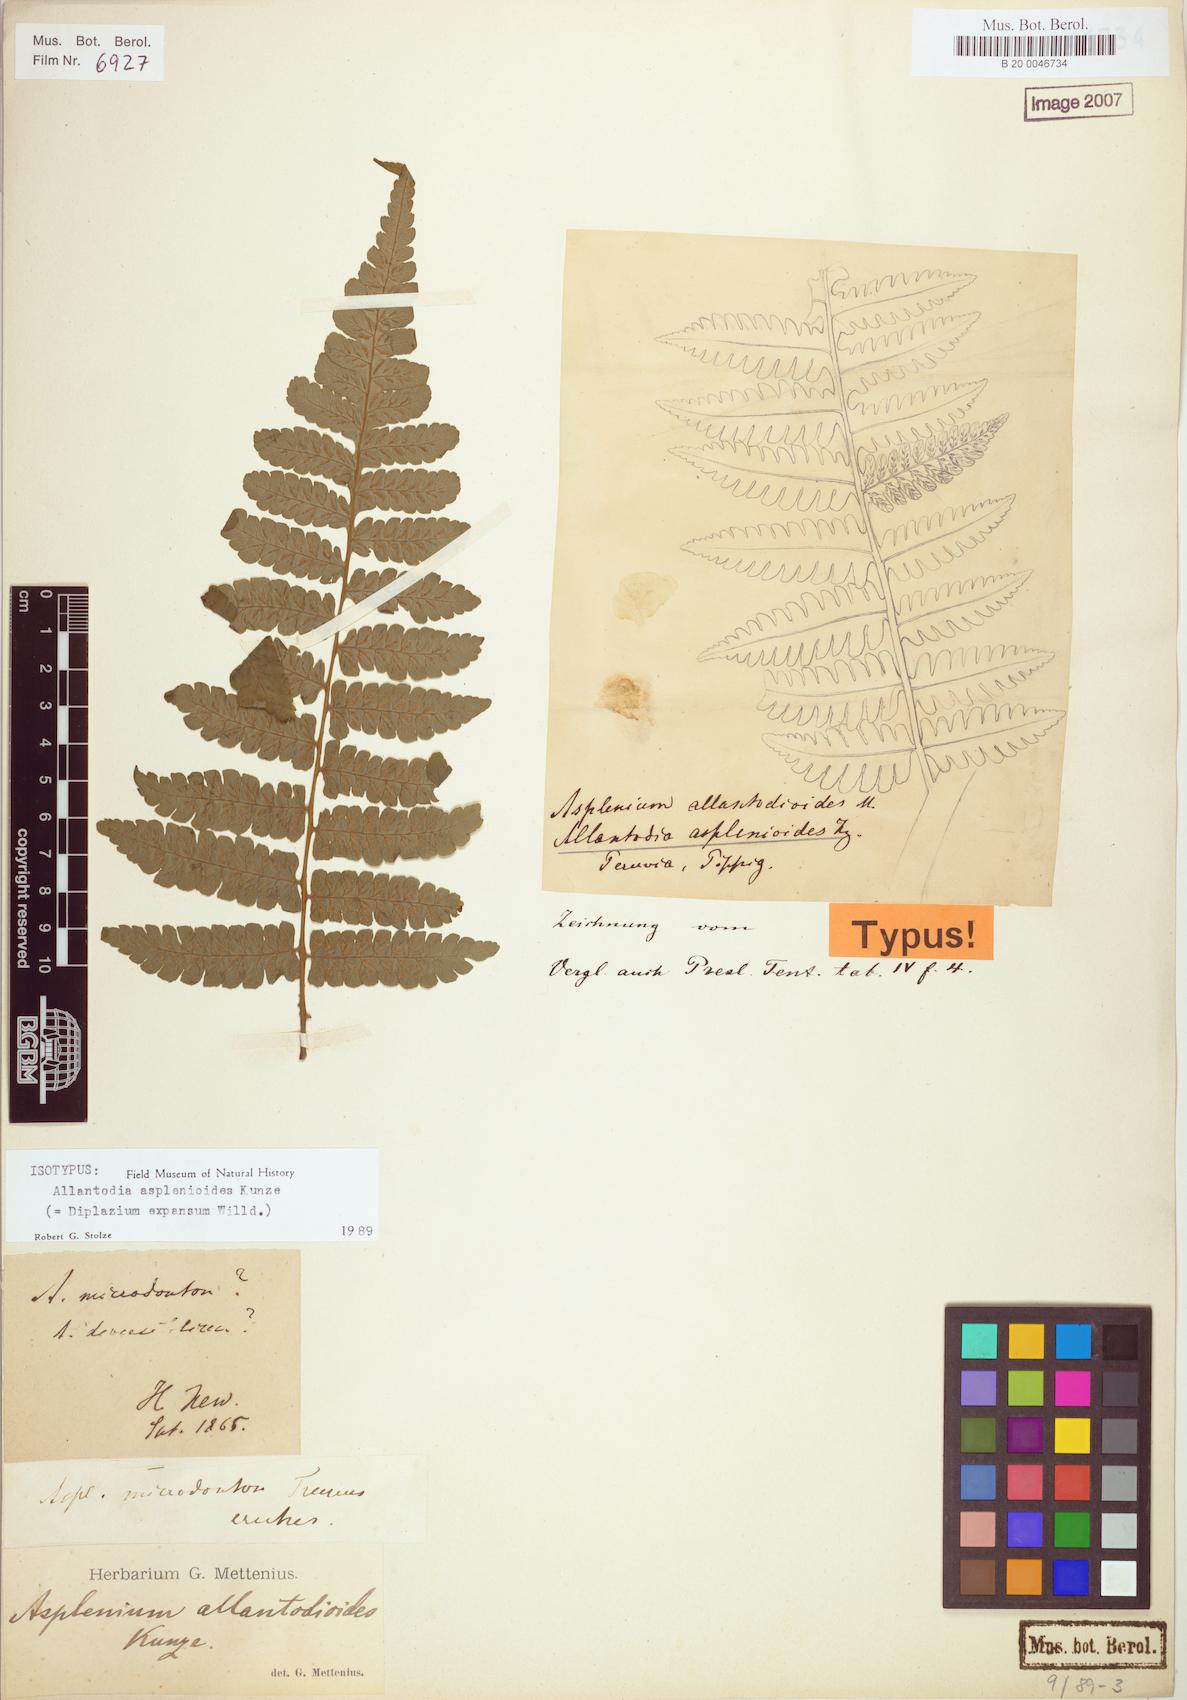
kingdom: Plantae
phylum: Tracheophyta
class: Polypodiopsida
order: Polypodiales
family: Athyriaceae
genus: Diplazium
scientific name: Diplazium expansum
